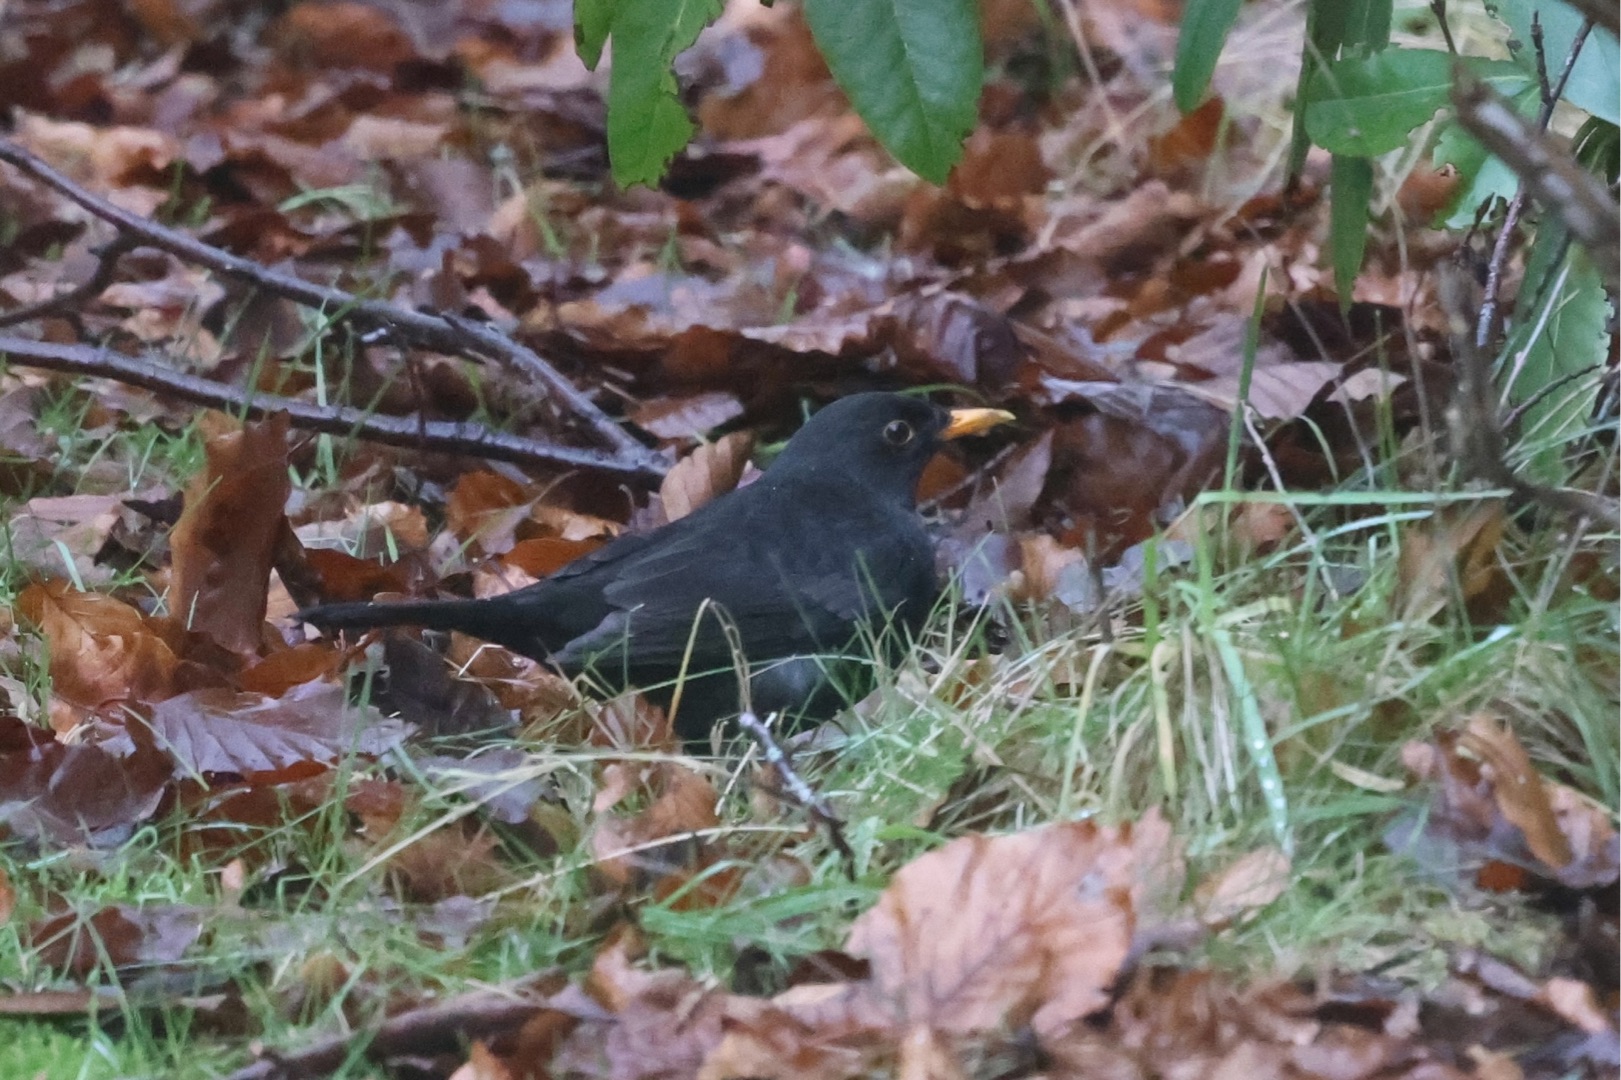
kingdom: Animalia
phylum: Chordata
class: Aves
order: Passeriformes
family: Turdidae
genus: Turdus
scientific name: Turdus merula
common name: Solsort
